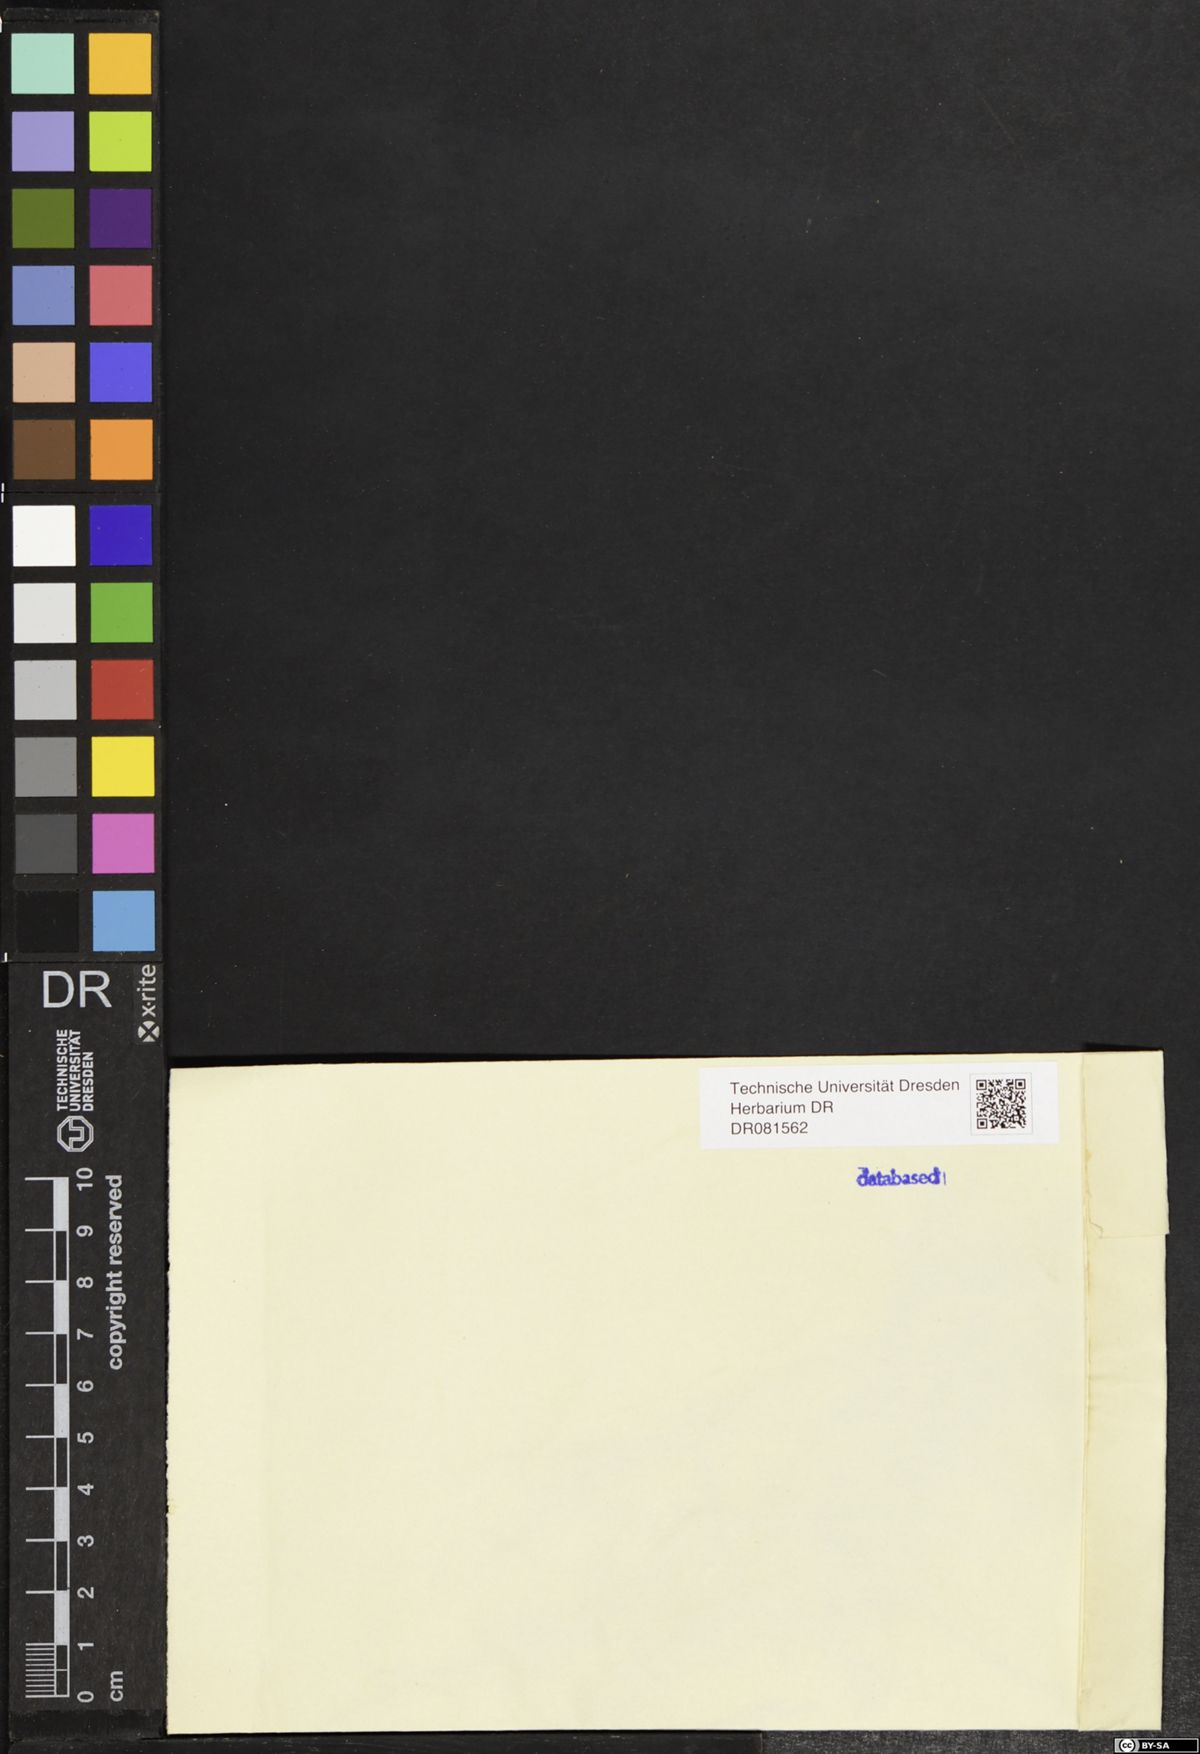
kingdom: Plantae
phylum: Tracheophyta
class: Liliopsida
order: Asparagales
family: Orchidaceae
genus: Spiranthes
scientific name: Spiranthes spiralis
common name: Autumn lady's-tresses
